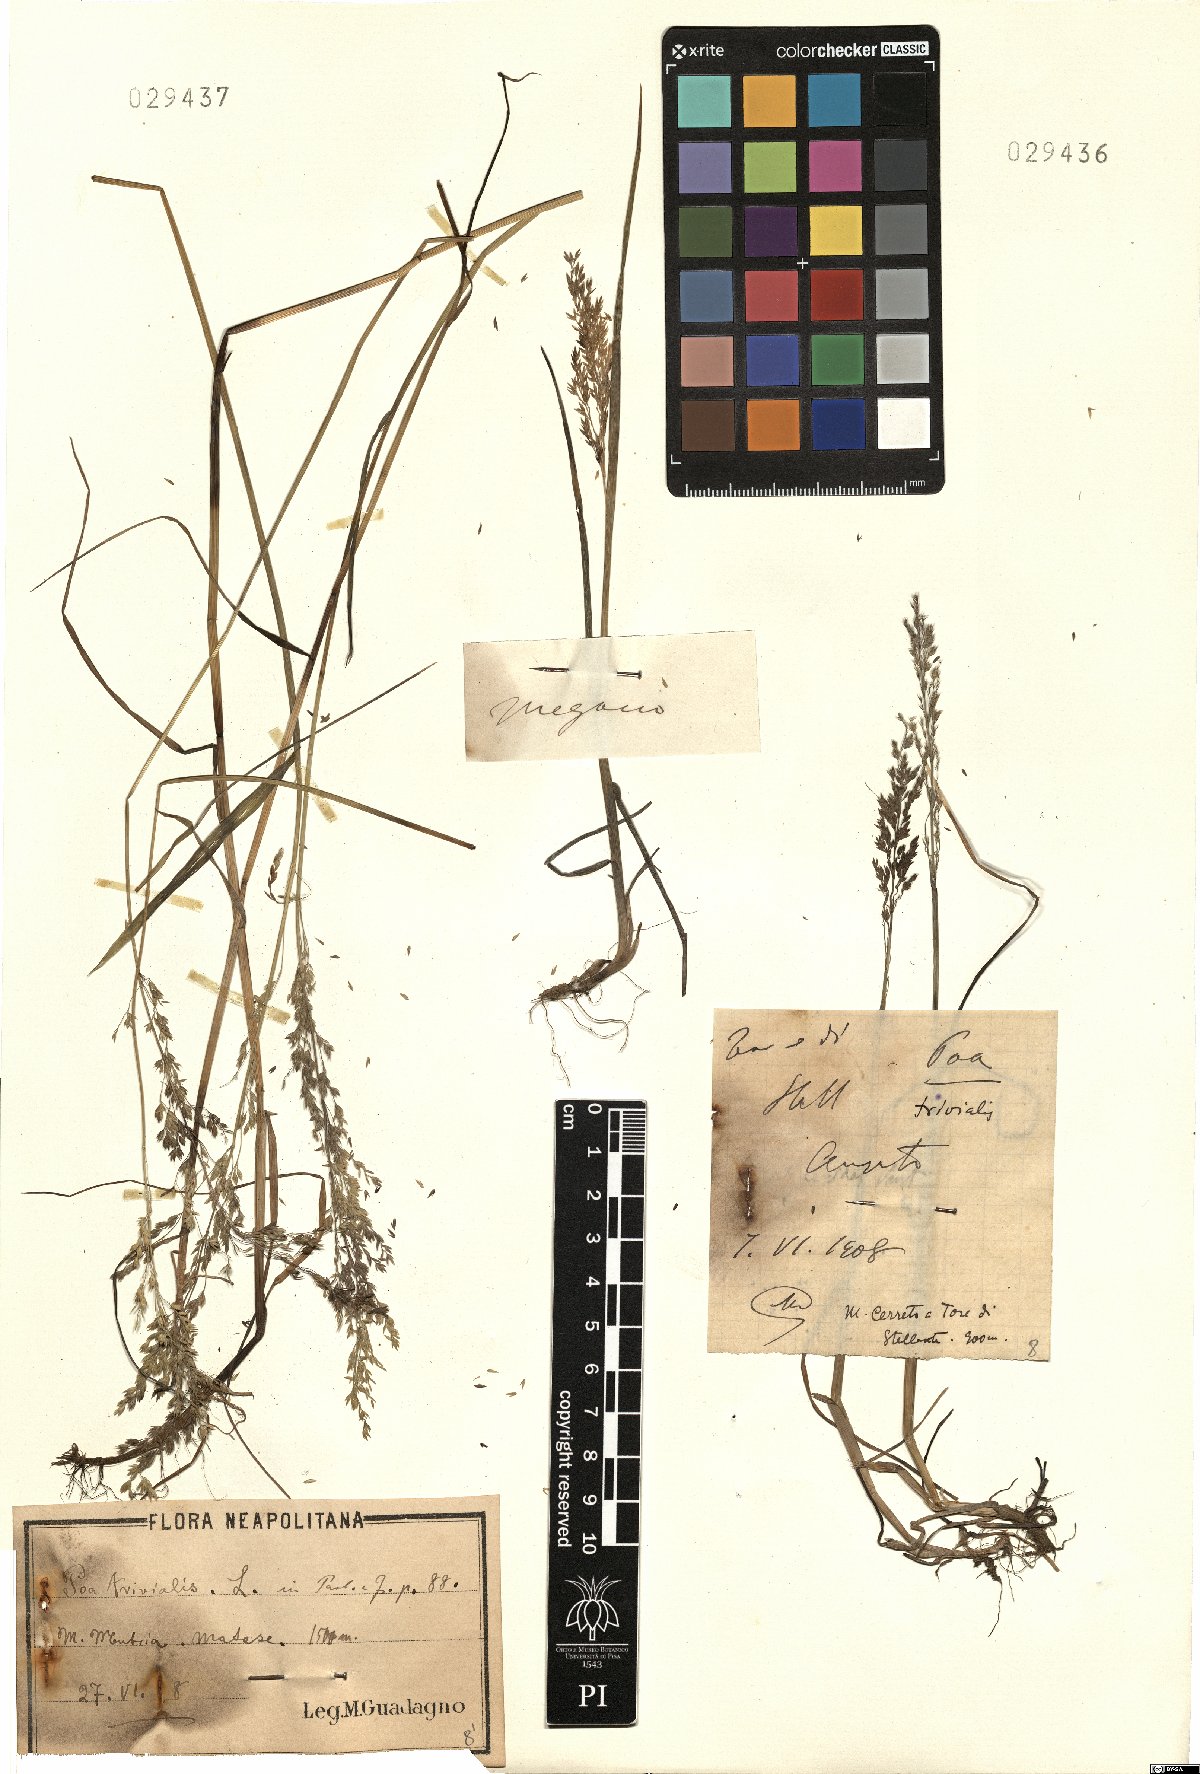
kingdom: Plantae
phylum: Tracheophyta
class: Liliopsida
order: Poales
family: Poaceae
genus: Poa
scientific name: Poa trivialis
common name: Rough bluegrass
